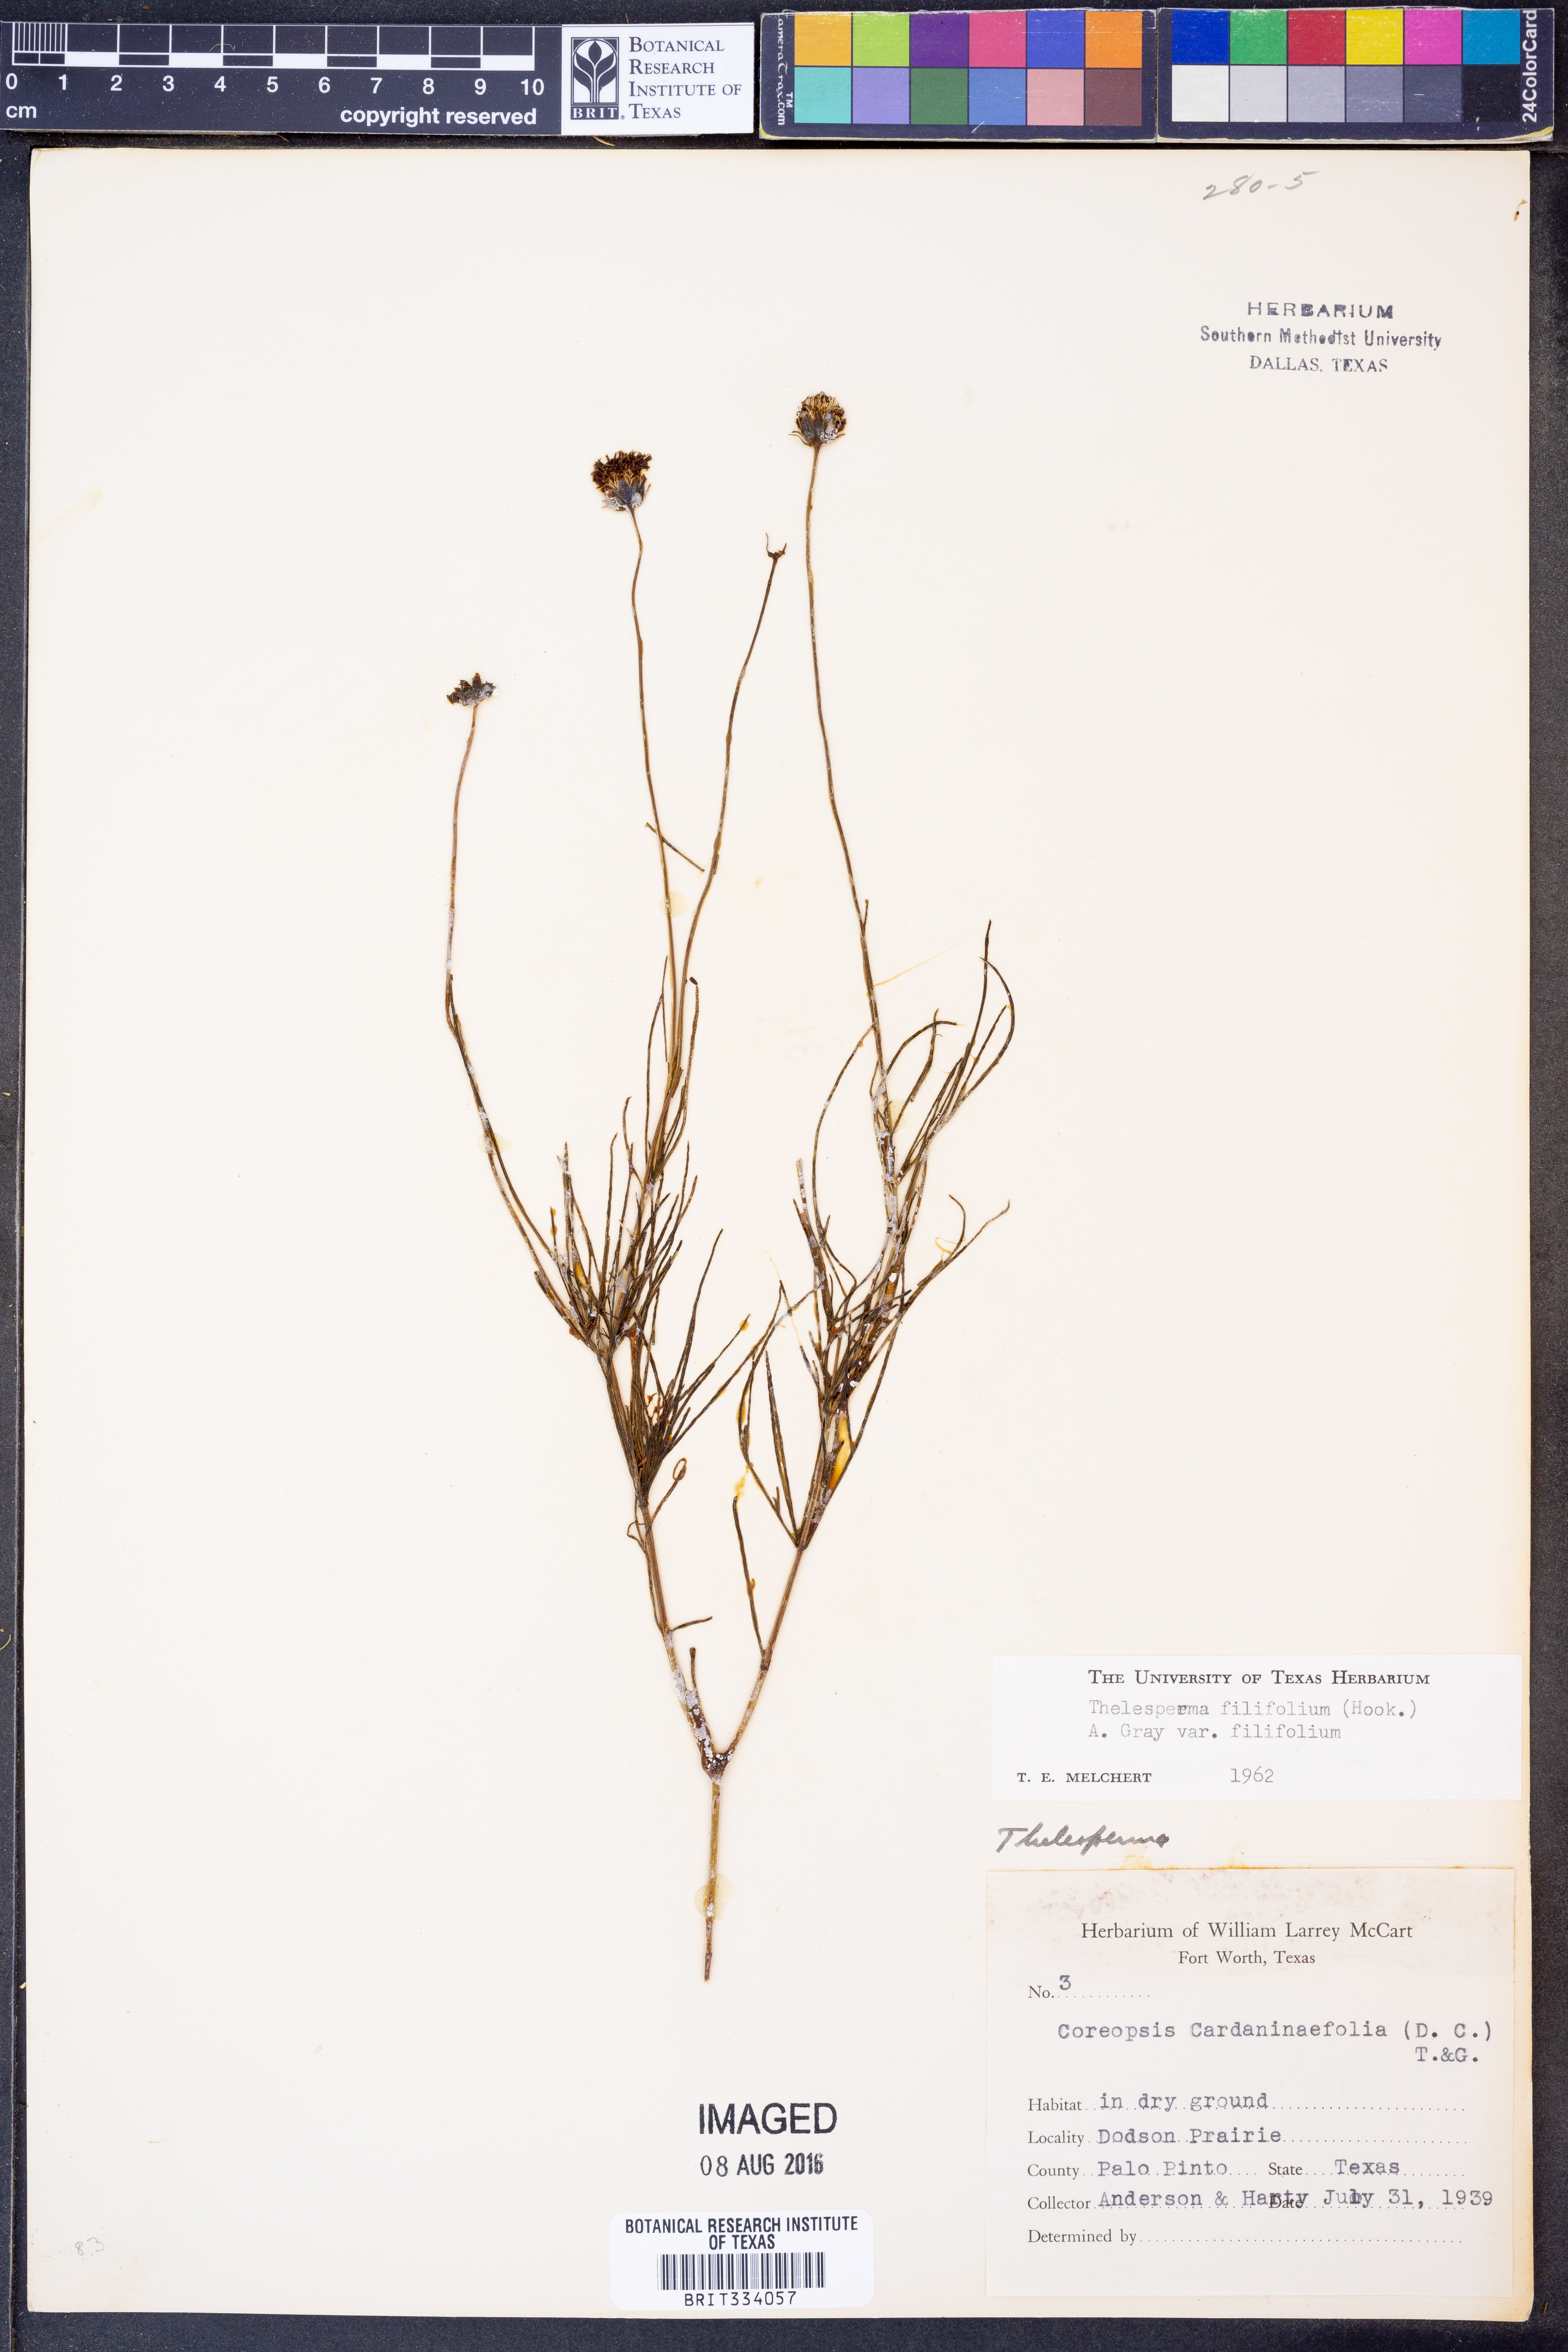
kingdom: Plantae
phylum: Tracheophyta
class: Magnoliopsida
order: Asterales
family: Asteraceae
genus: Thelesperma
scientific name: Thelesperma filifolium
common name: Stiff greenthread
